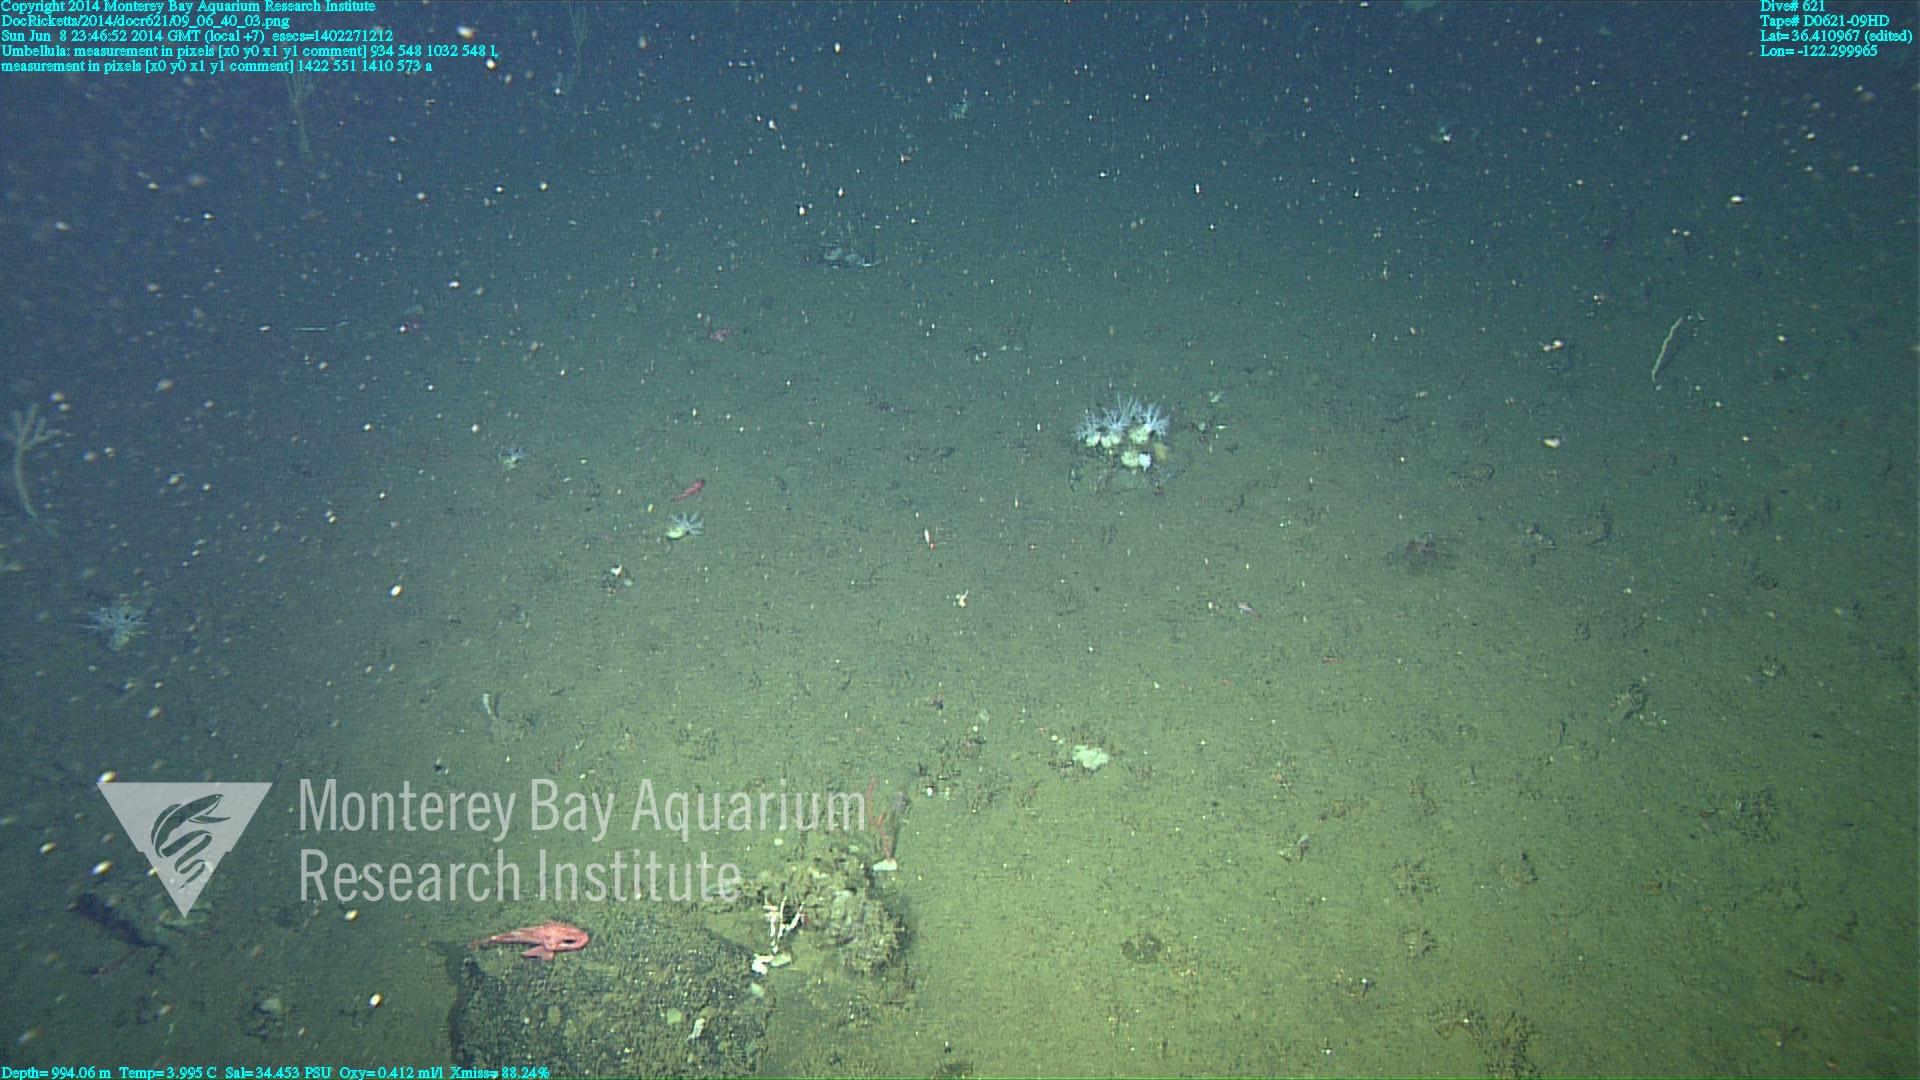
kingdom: Animalia
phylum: Cnidaria
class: Anthozoa
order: Scleralcyonacea
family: Umbellulidae
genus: Umbellula
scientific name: Umbellula
